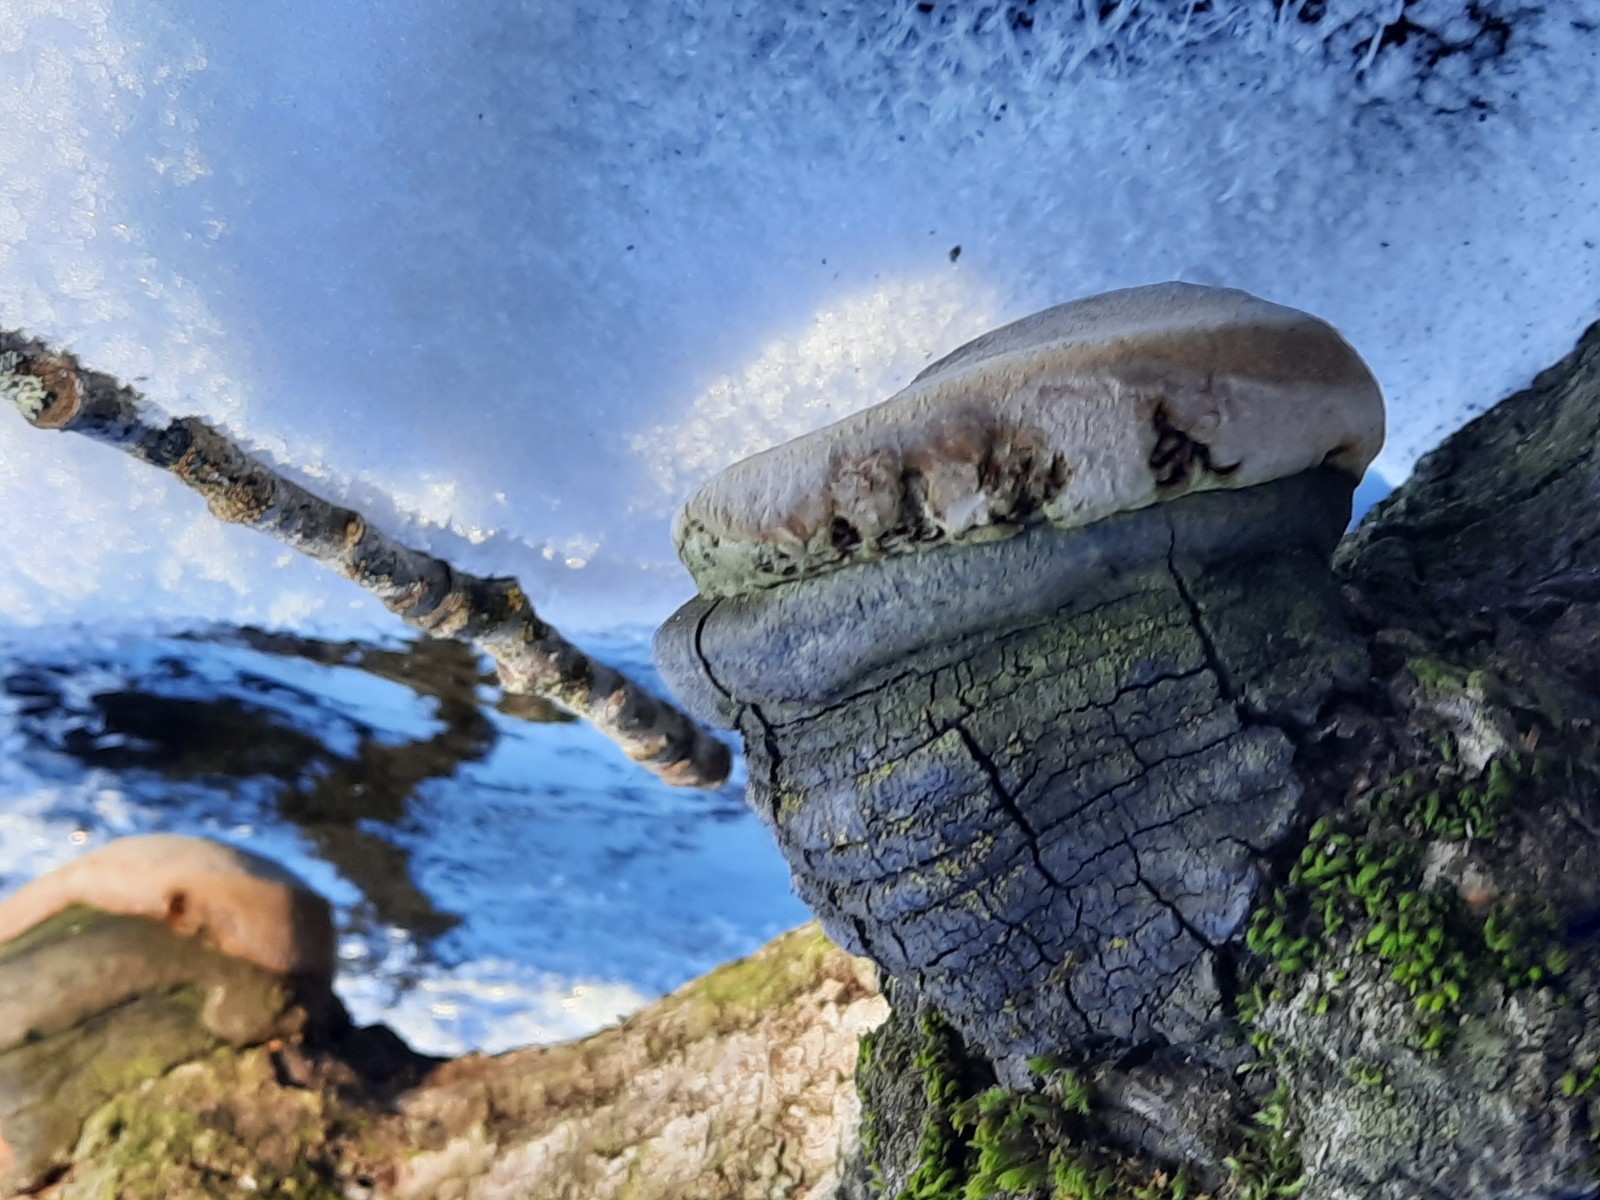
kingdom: Fungi
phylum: Basidiomycota
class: Agaricomycetes
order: Hymenochaetales
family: Hymenochaetaceae
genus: Phellinus
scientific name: Phellinus tremulae
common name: aspe-ildporesvamp
